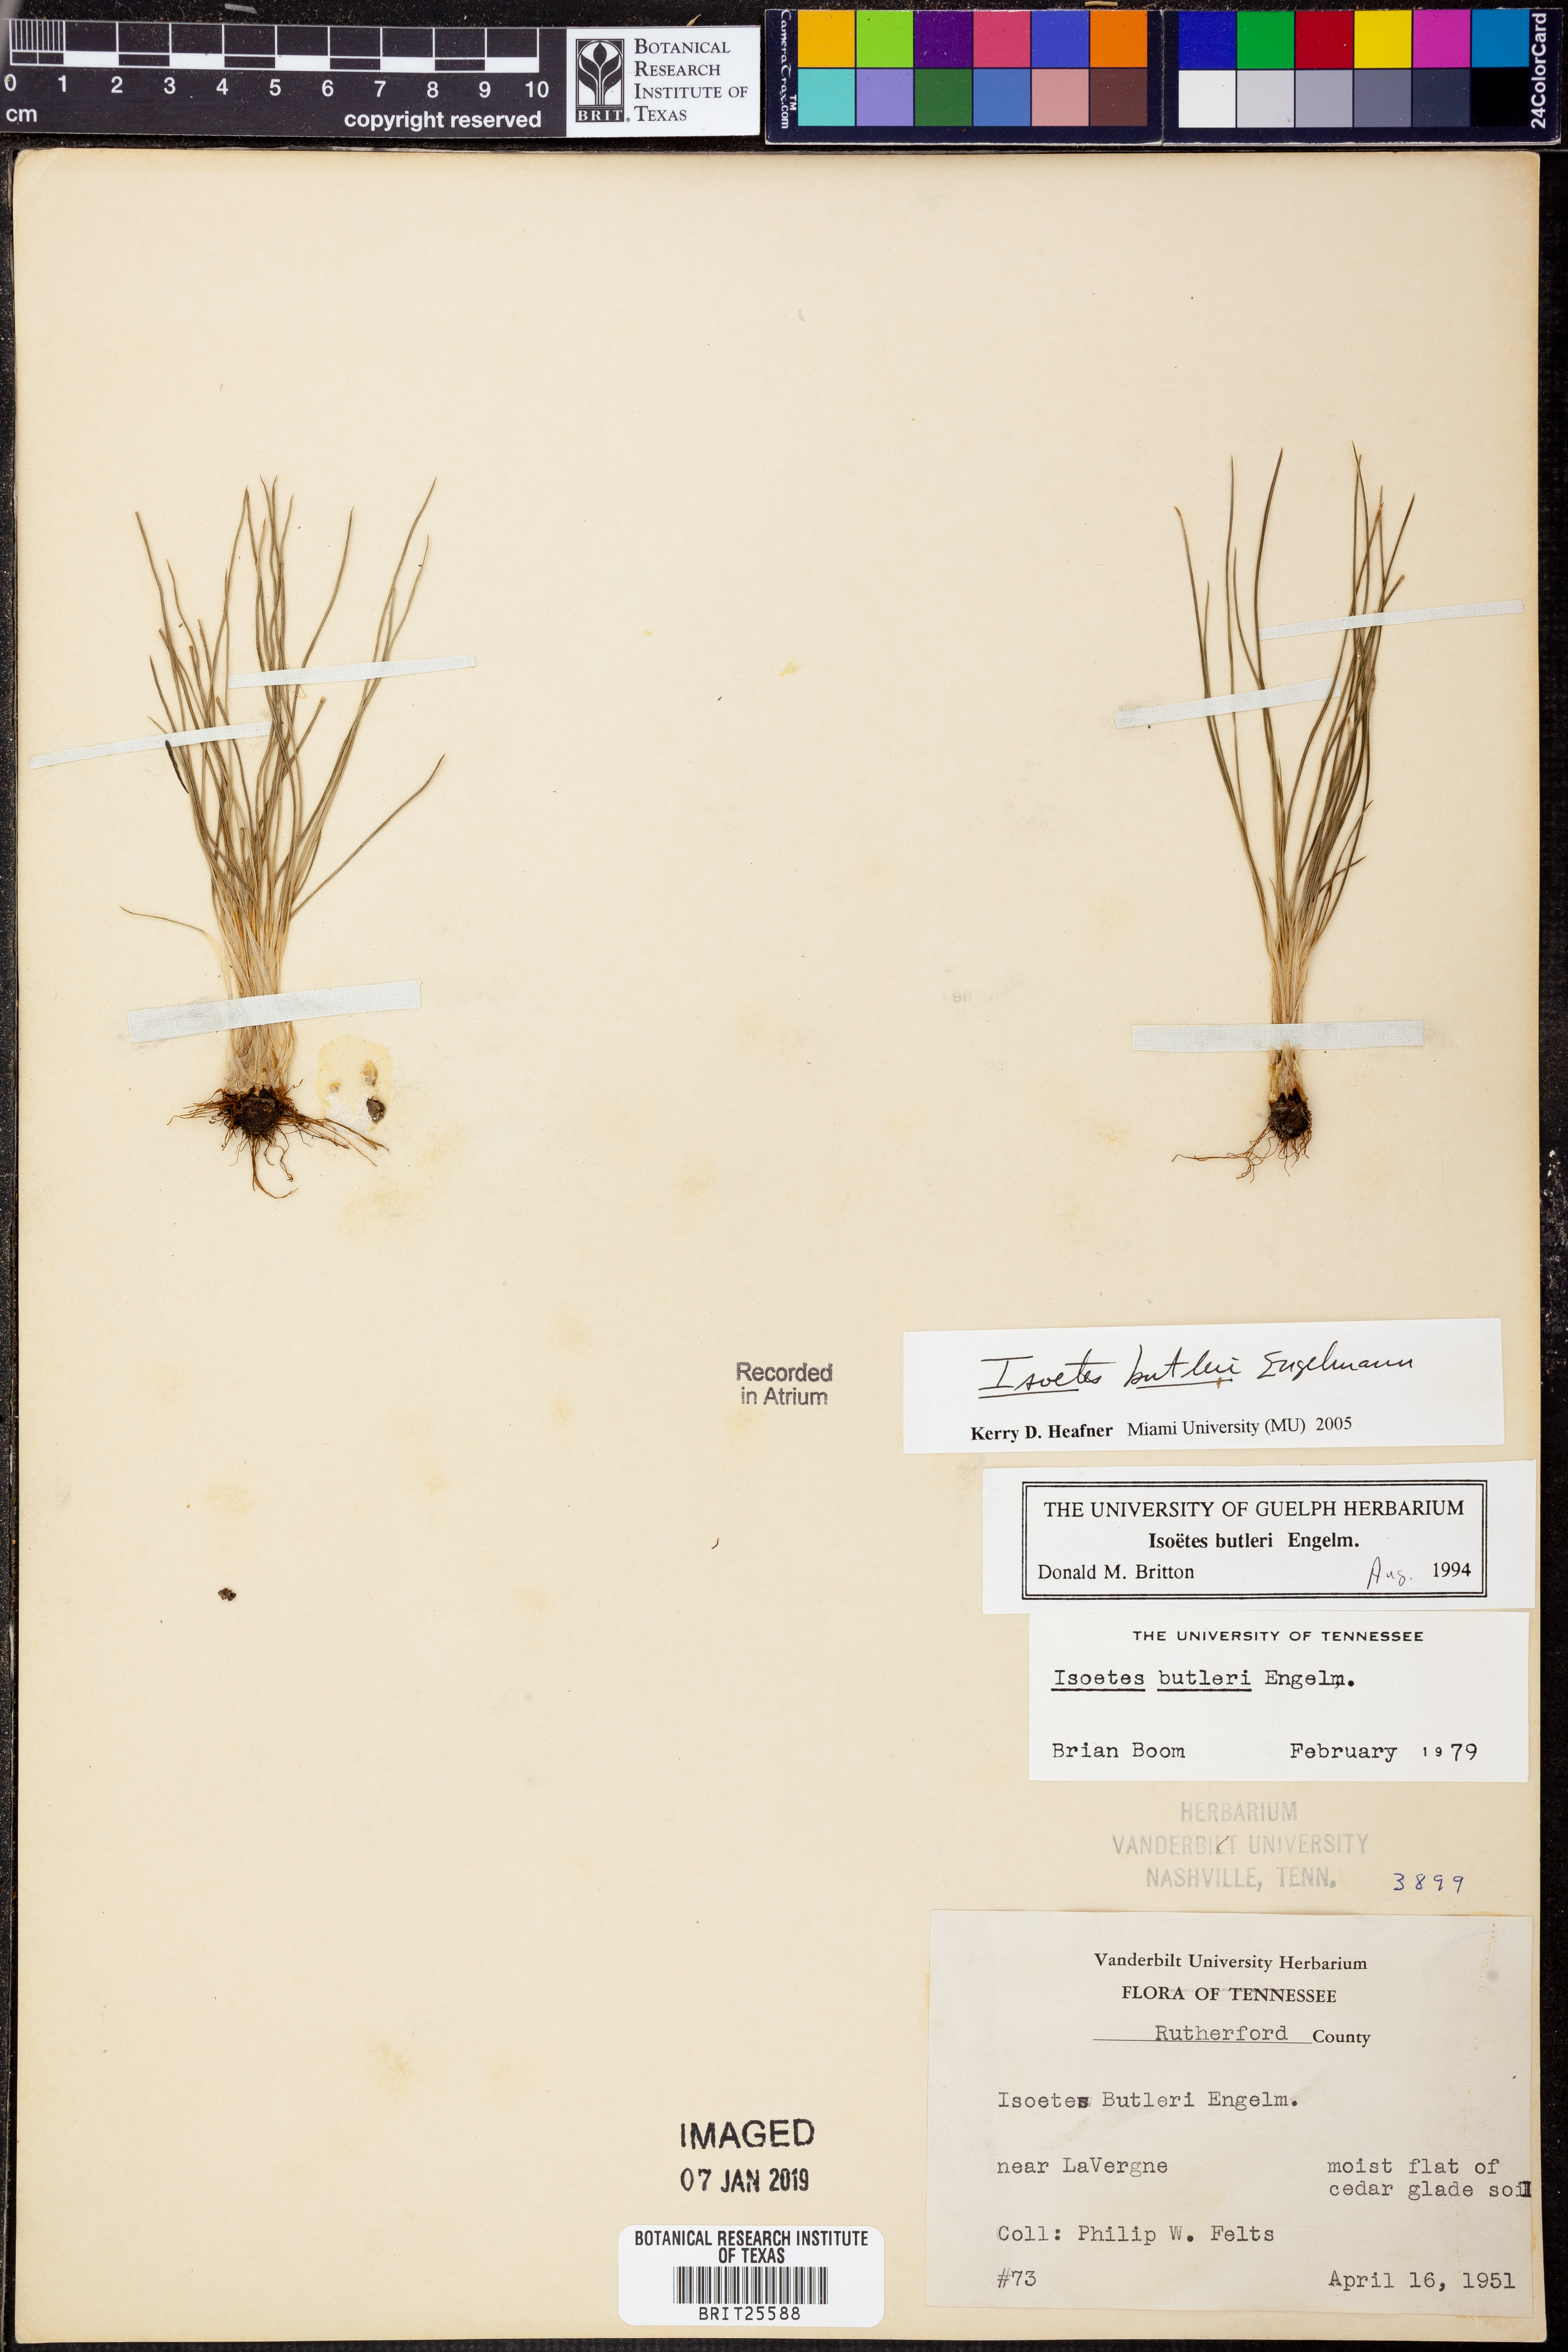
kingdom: Plantae
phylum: Tracheophyta
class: Lycopodiopsida
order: Isoetales
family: Isoetaceae
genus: Isoetes
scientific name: Isoetes butleri
